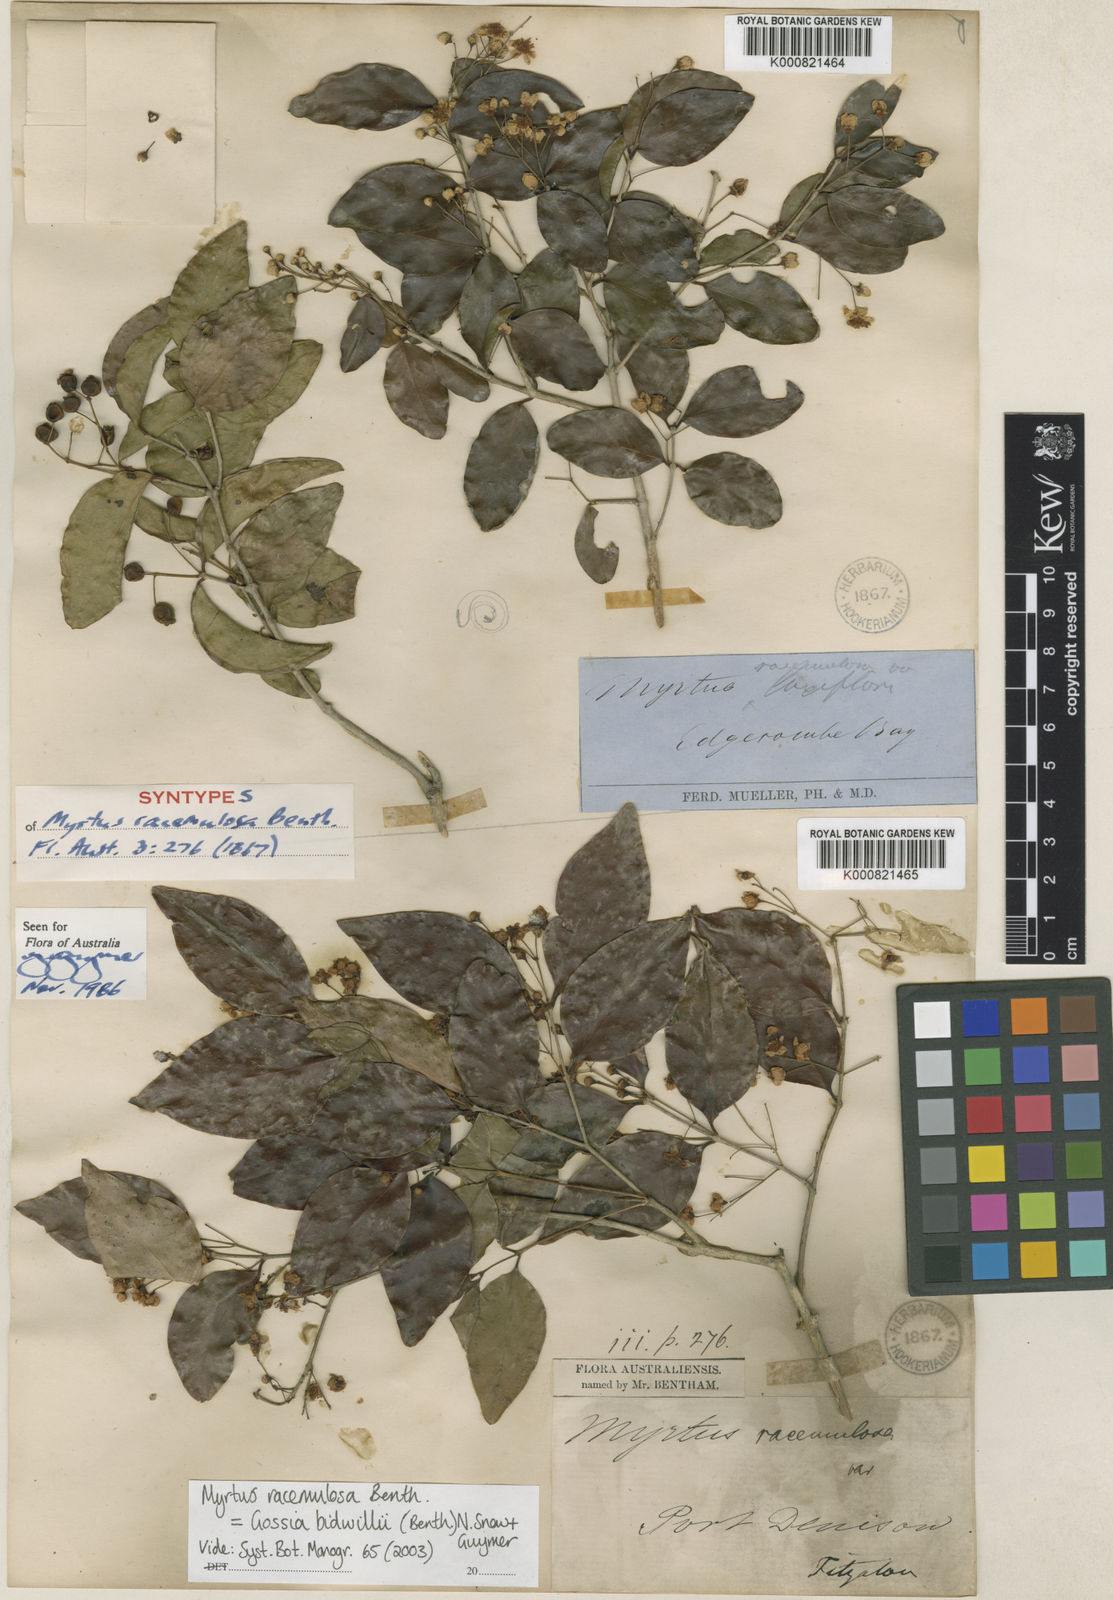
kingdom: Plantae
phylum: Tracheophyta
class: Magnoliopsida
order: Myrtales
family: Myrtaceae
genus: Gossia
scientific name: Gossia bidwillii
